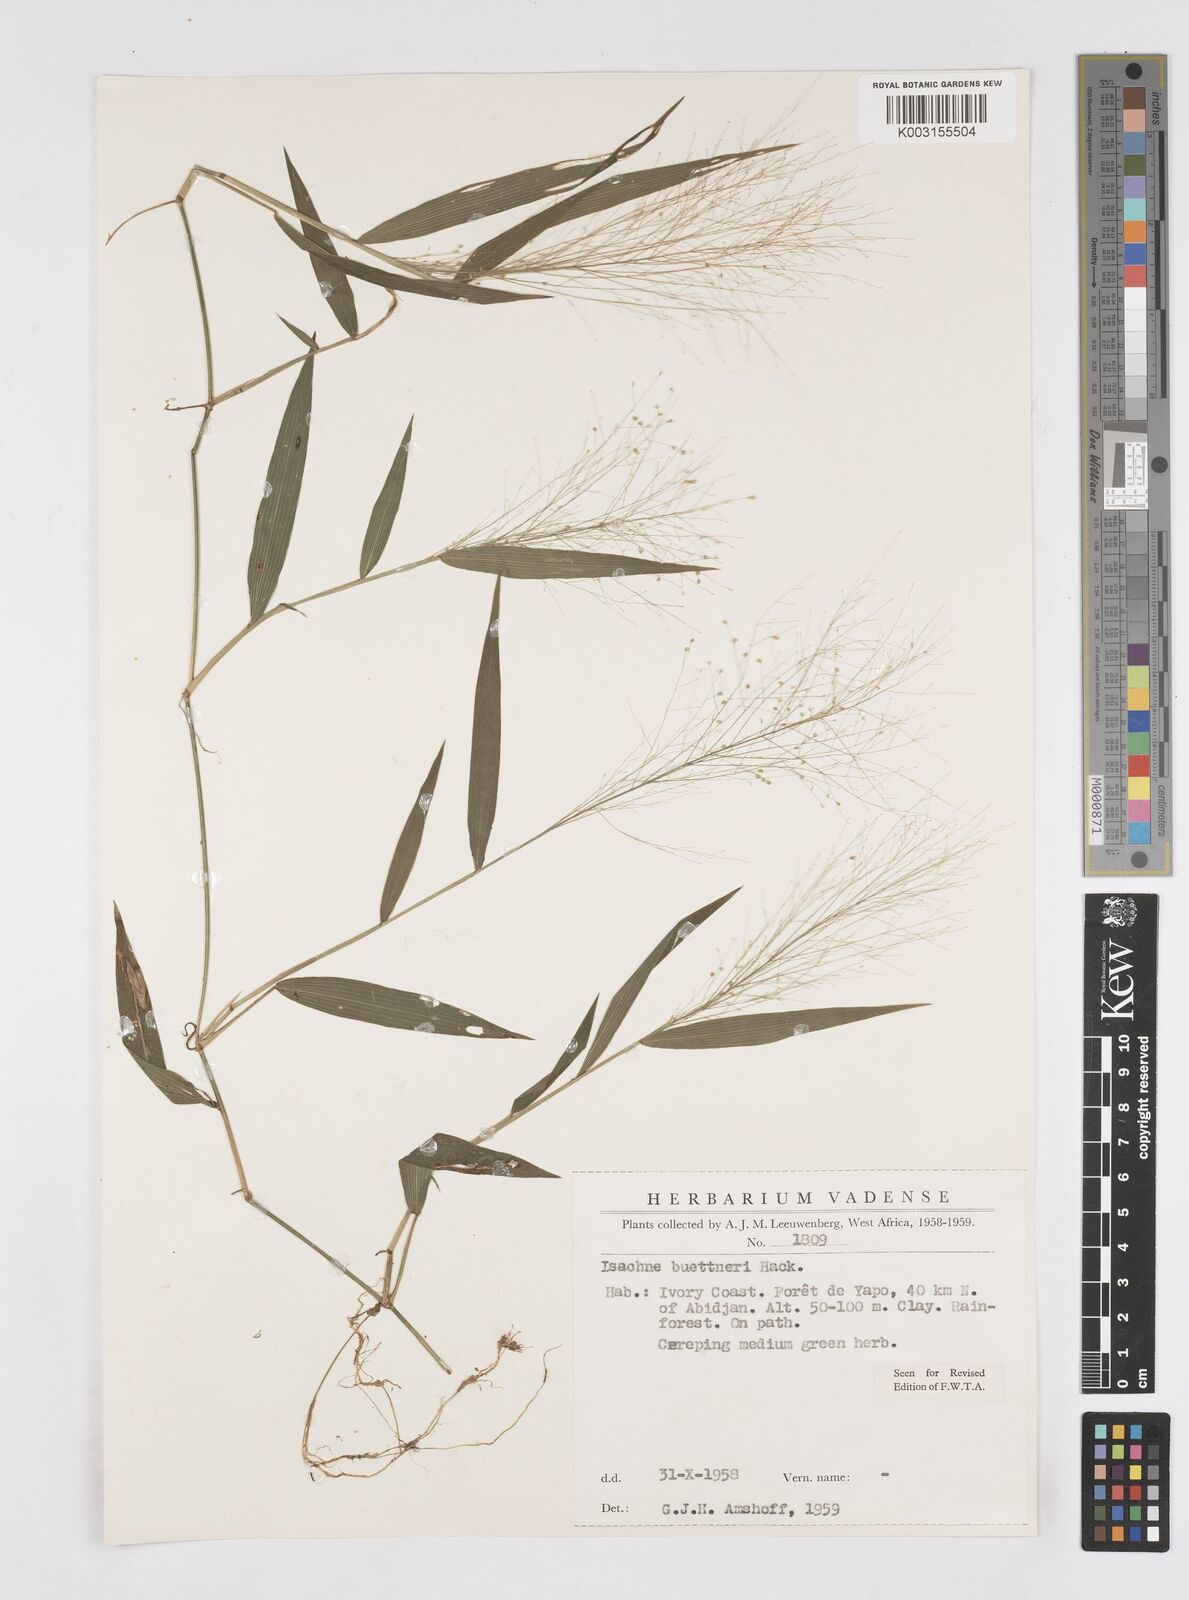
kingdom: Plantae
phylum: Tracheophyta
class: Liliopsida
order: Poales
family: Poaceae
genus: Isachne
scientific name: Isachne albens
